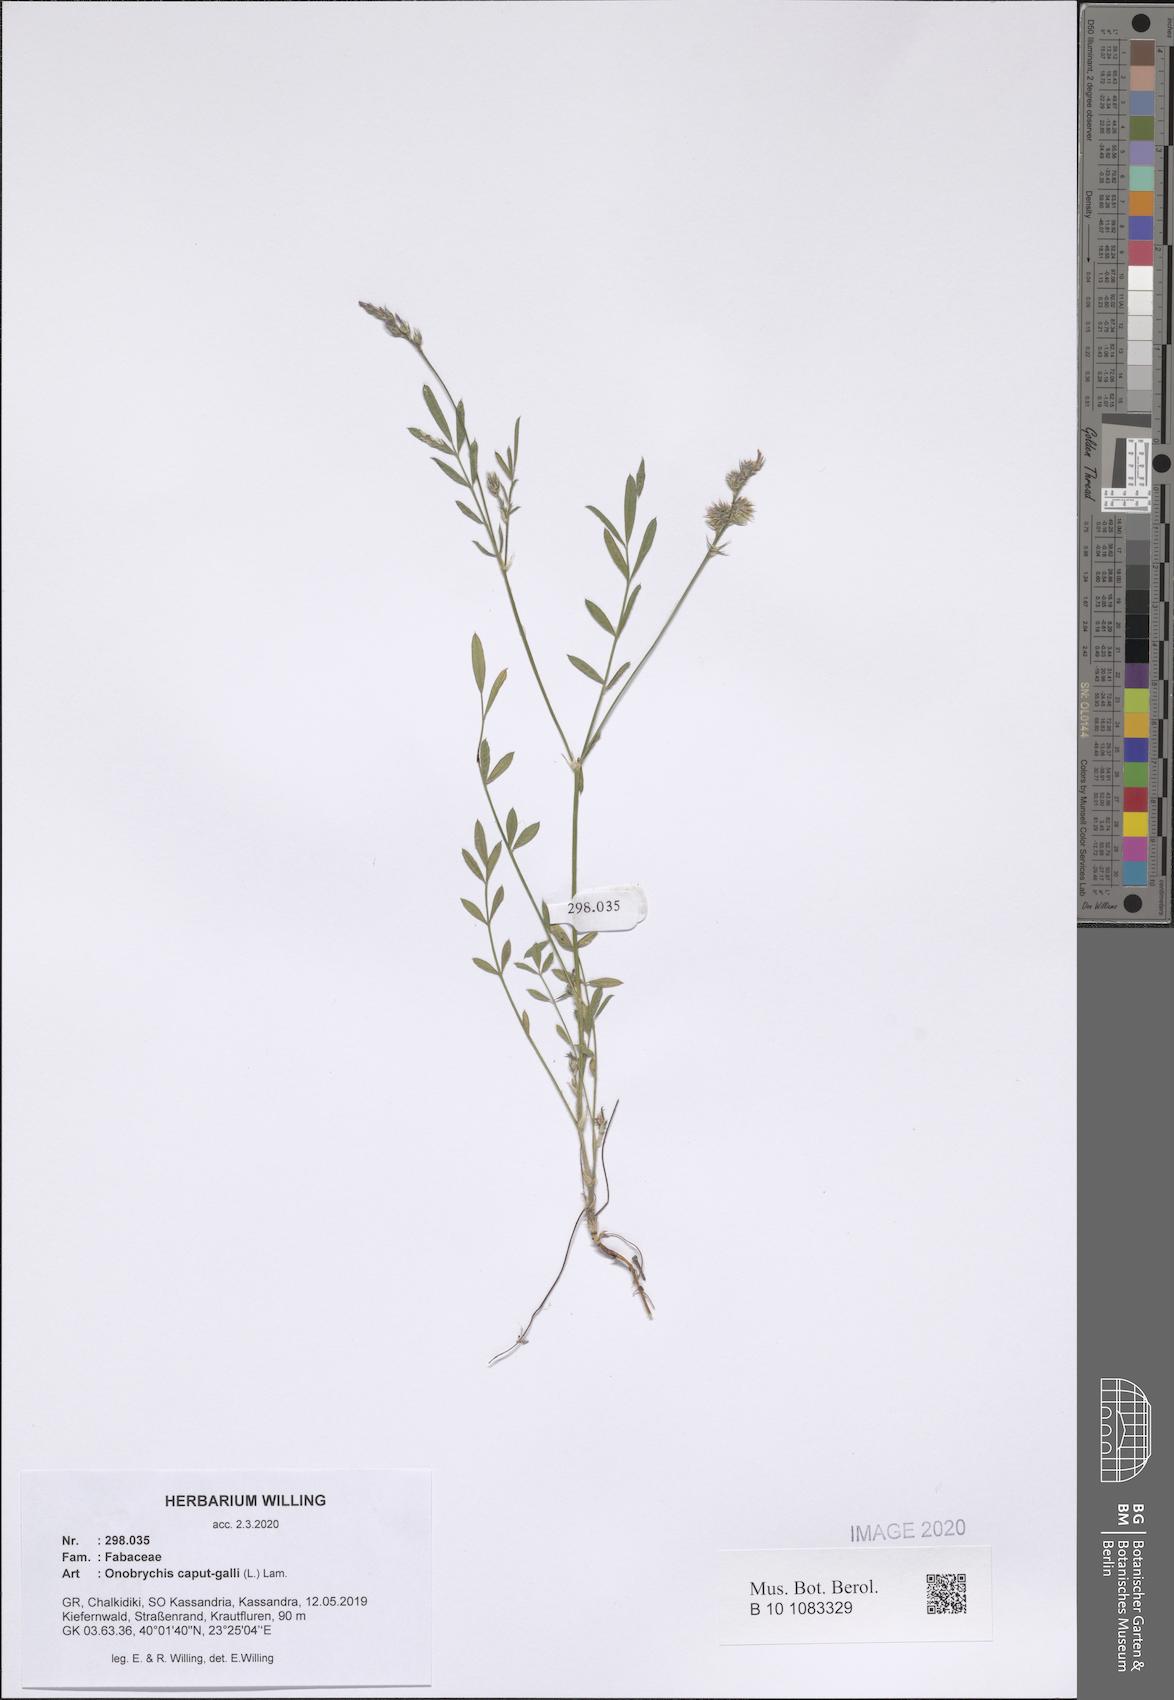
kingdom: Plantae
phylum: Tracheophyta
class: Magnoliopsida
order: Fabales
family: Fabaceae
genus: Onobrychis
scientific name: Onobrychis caput-galli
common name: Cockscomb sainfoin
